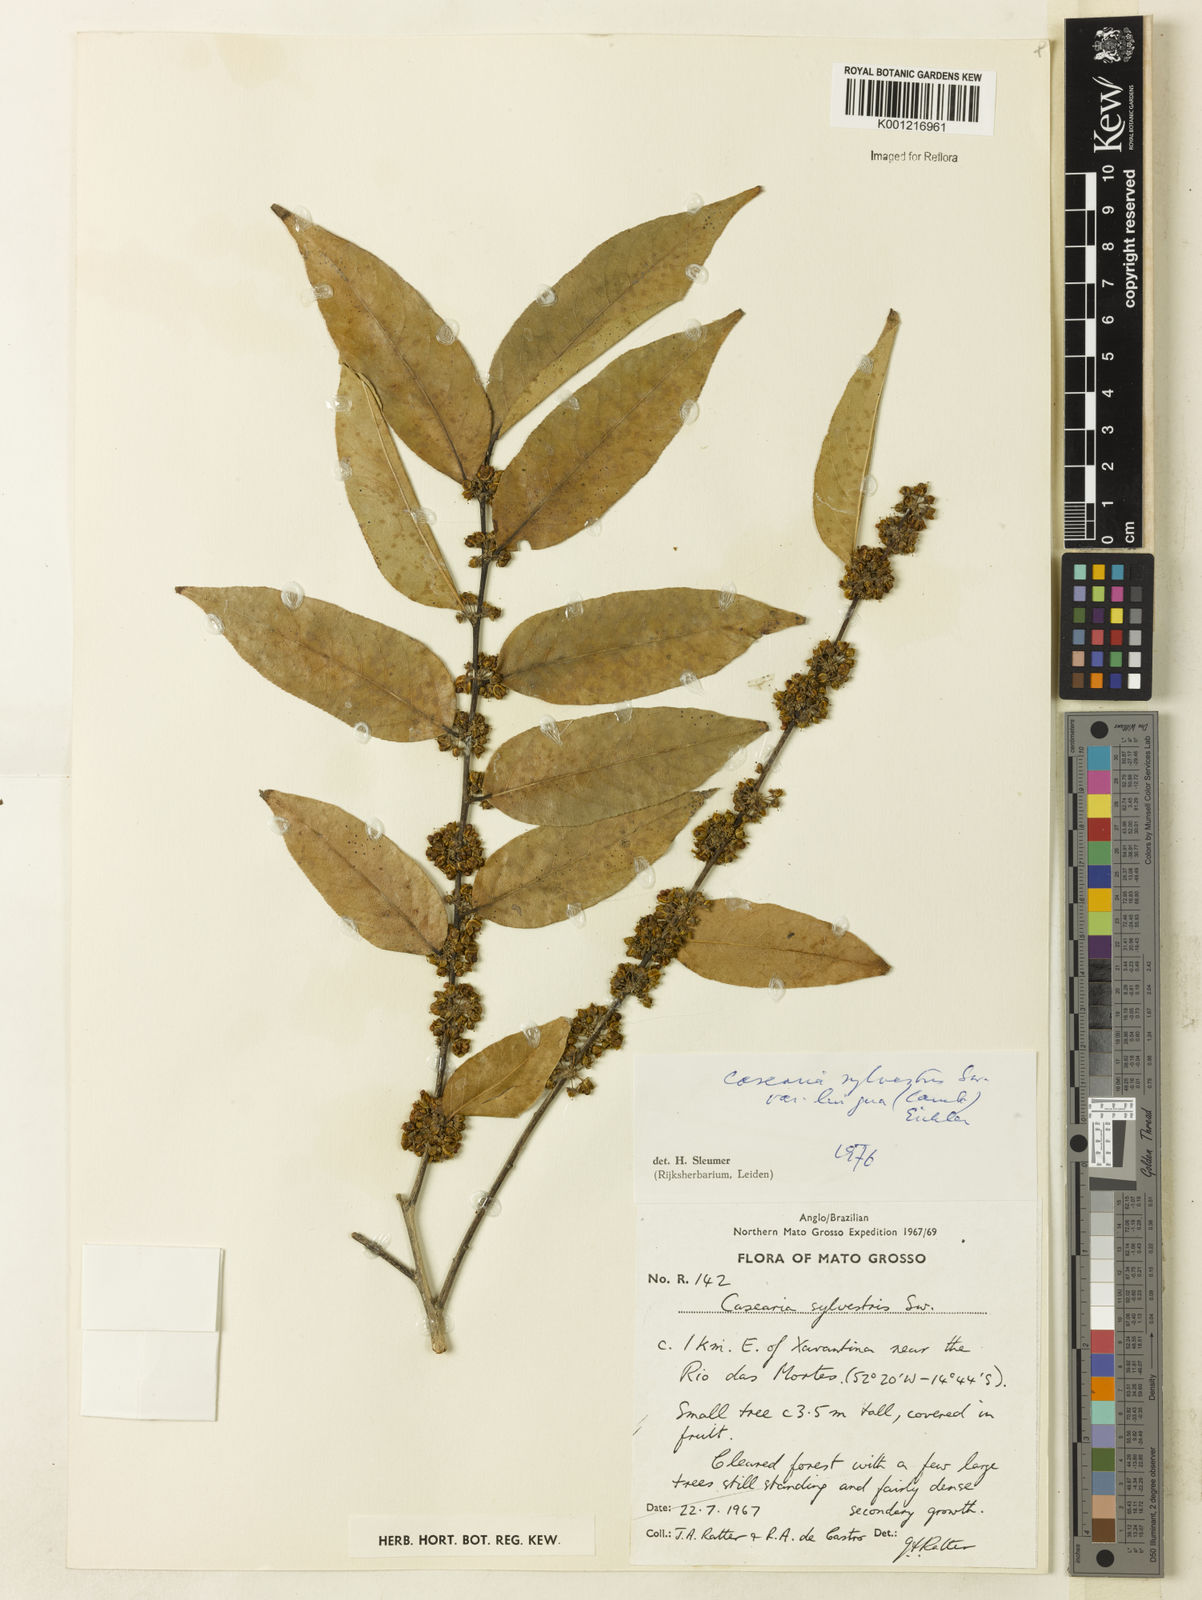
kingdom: Plantae
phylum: Tracheophyta
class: Magnoliopsida
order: Malpighiales
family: Salicaceae
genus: Casearia
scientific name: Casearia sylvestris
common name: Wild sage
